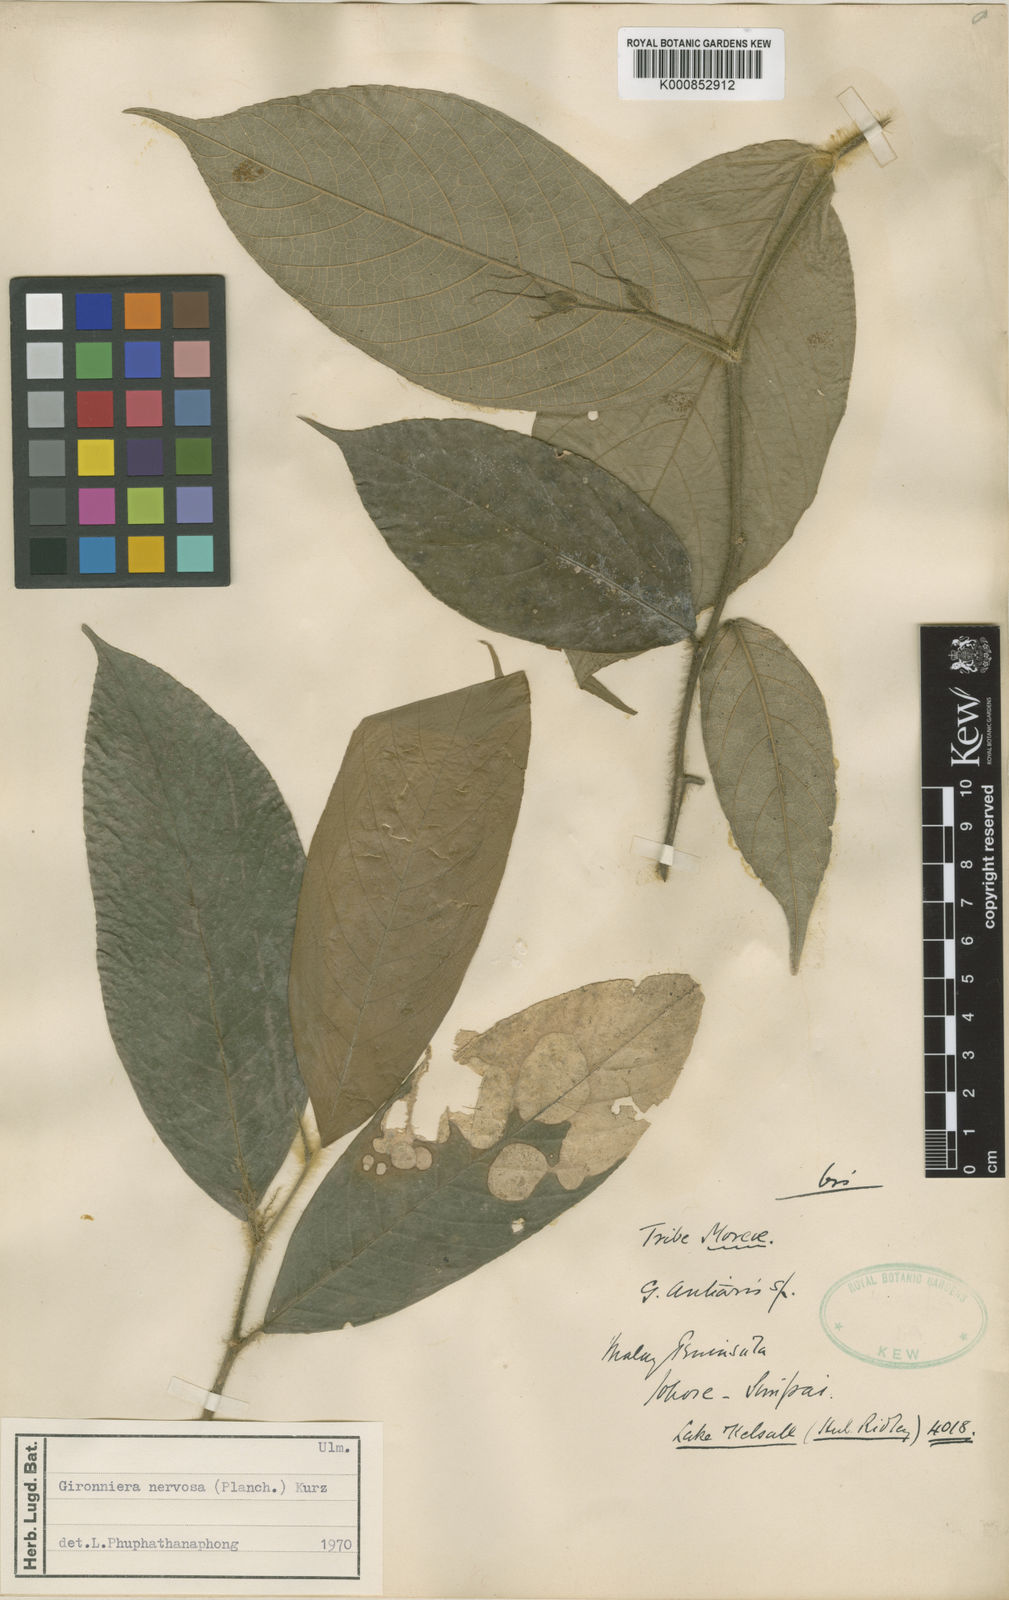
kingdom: Plantae
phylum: Tracheophyta
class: Magnoliopsida
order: Rosales
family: Cannabaceae
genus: Gironniera
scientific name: Gironniera hirta
